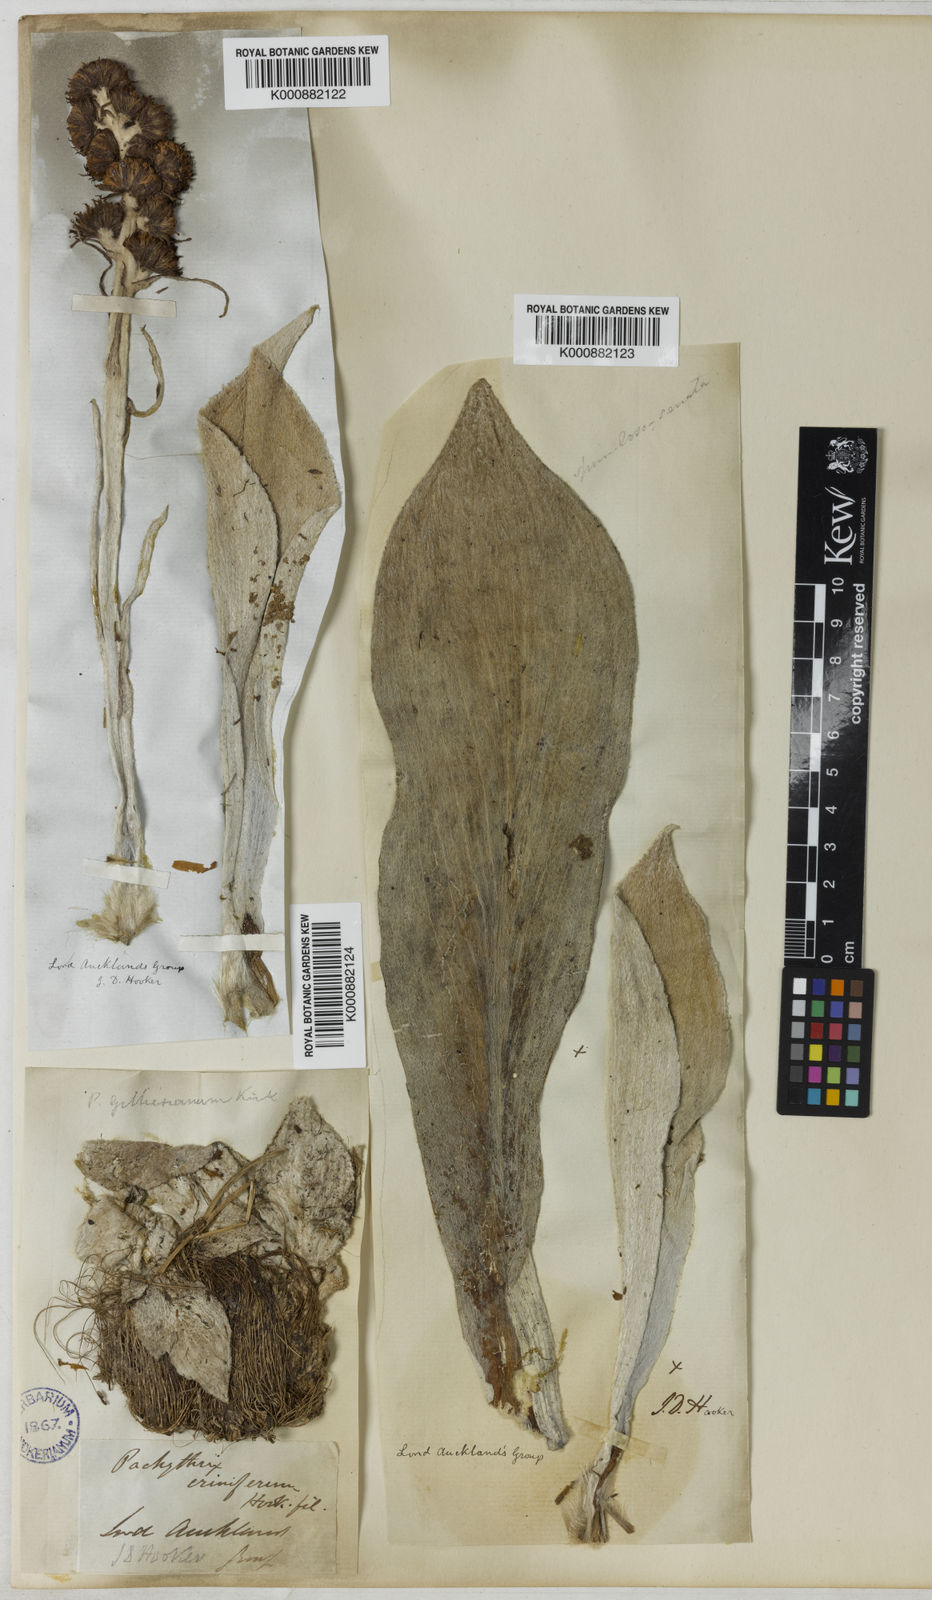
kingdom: Plantae
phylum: Tracheophyta
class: Magnoliopsida
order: Asterales
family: Asteraceae
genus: Pleurophyllum
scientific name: Pleurophyllum speciosum
